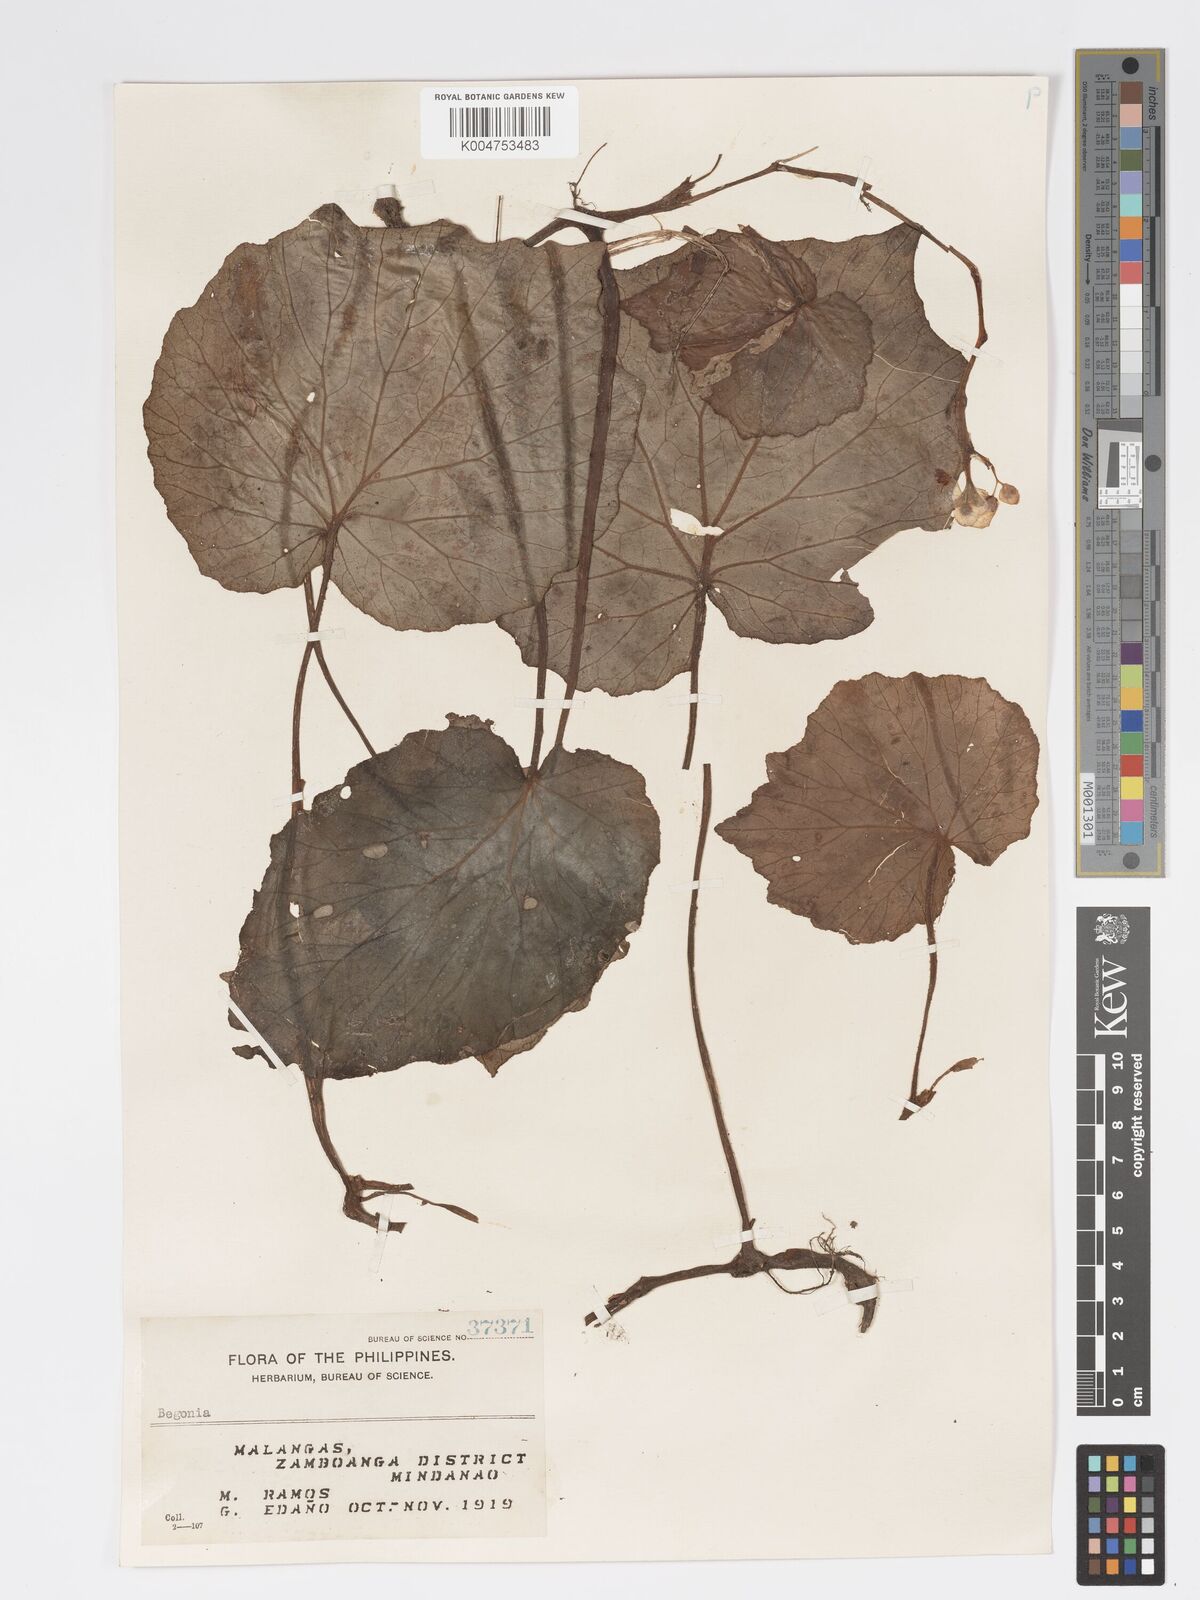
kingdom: Plantae
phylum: Tracheophyta
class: Magnoliopsida
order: Cucurbitales
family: Begoniaceae
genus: Begonia
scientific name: Begonia
